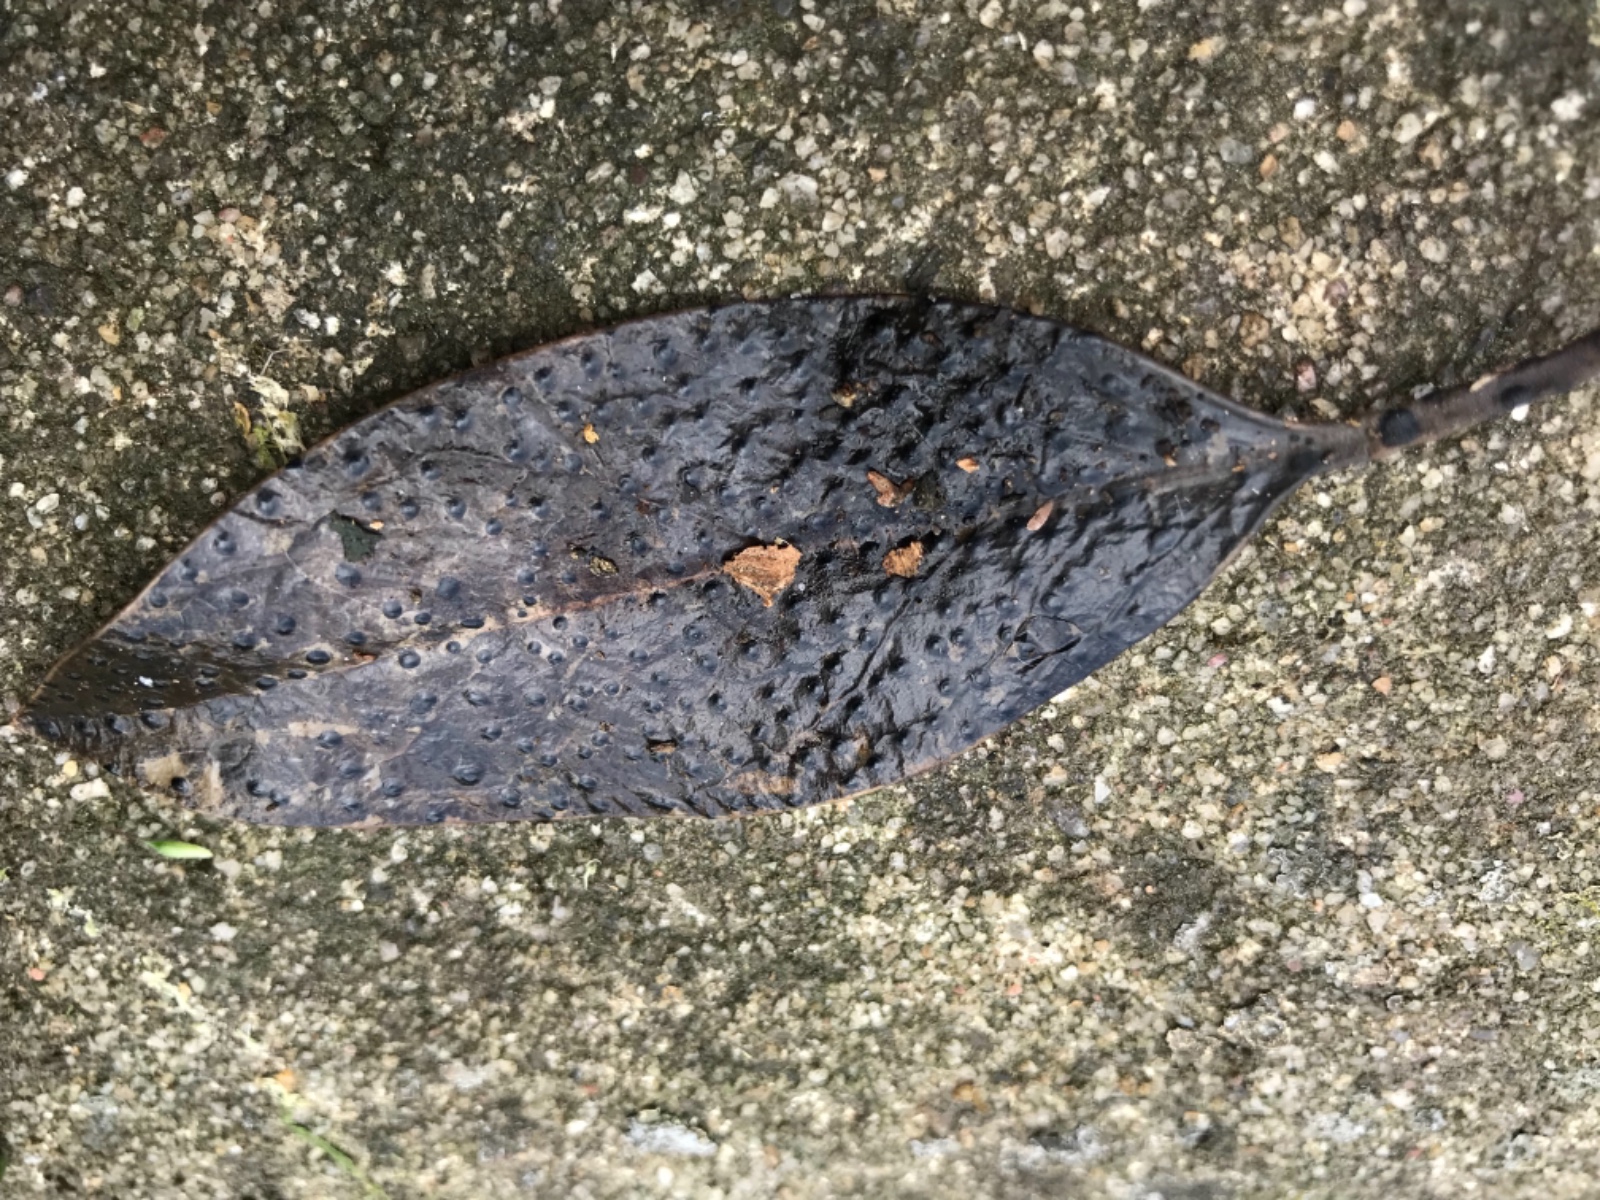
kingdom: Fungi
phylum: Ascomycota
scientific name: Ascomycota
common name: sæksvampe
